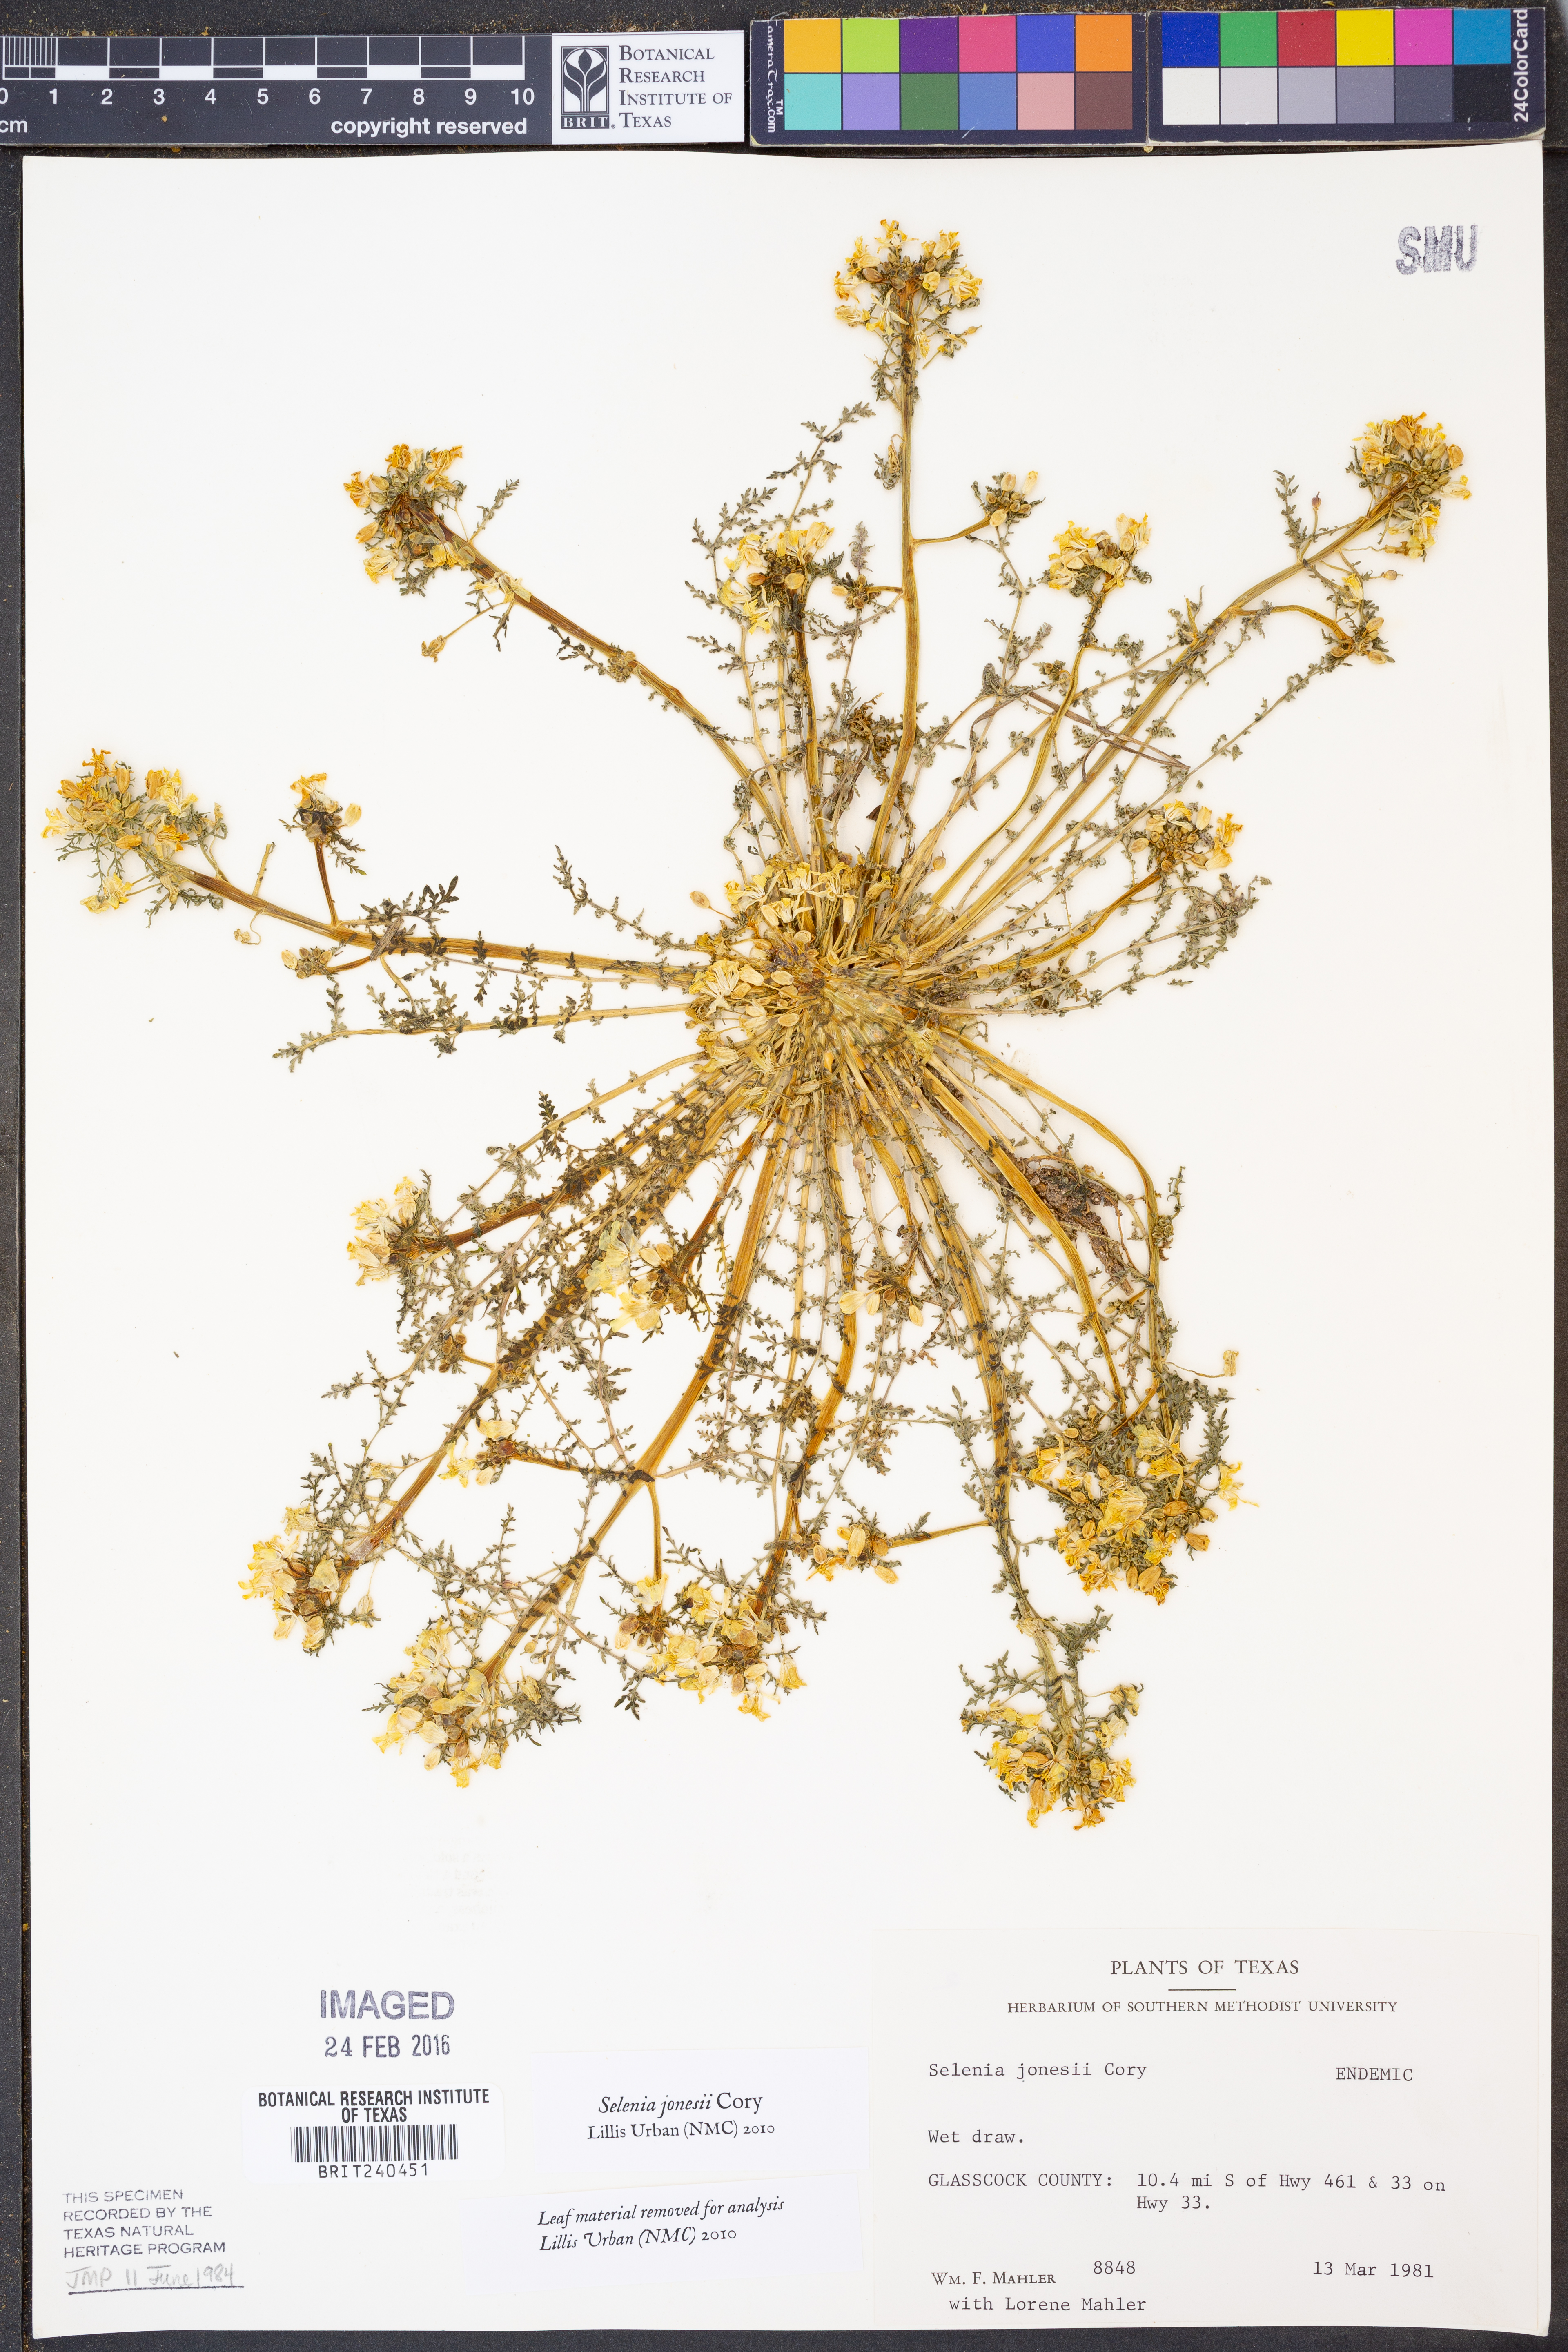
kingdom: Plantae
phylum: Tracheophyta
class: Magnoliopsida
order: Brassicales
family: Brassicaceae
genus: Selenia
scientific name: Selenia jonesii
